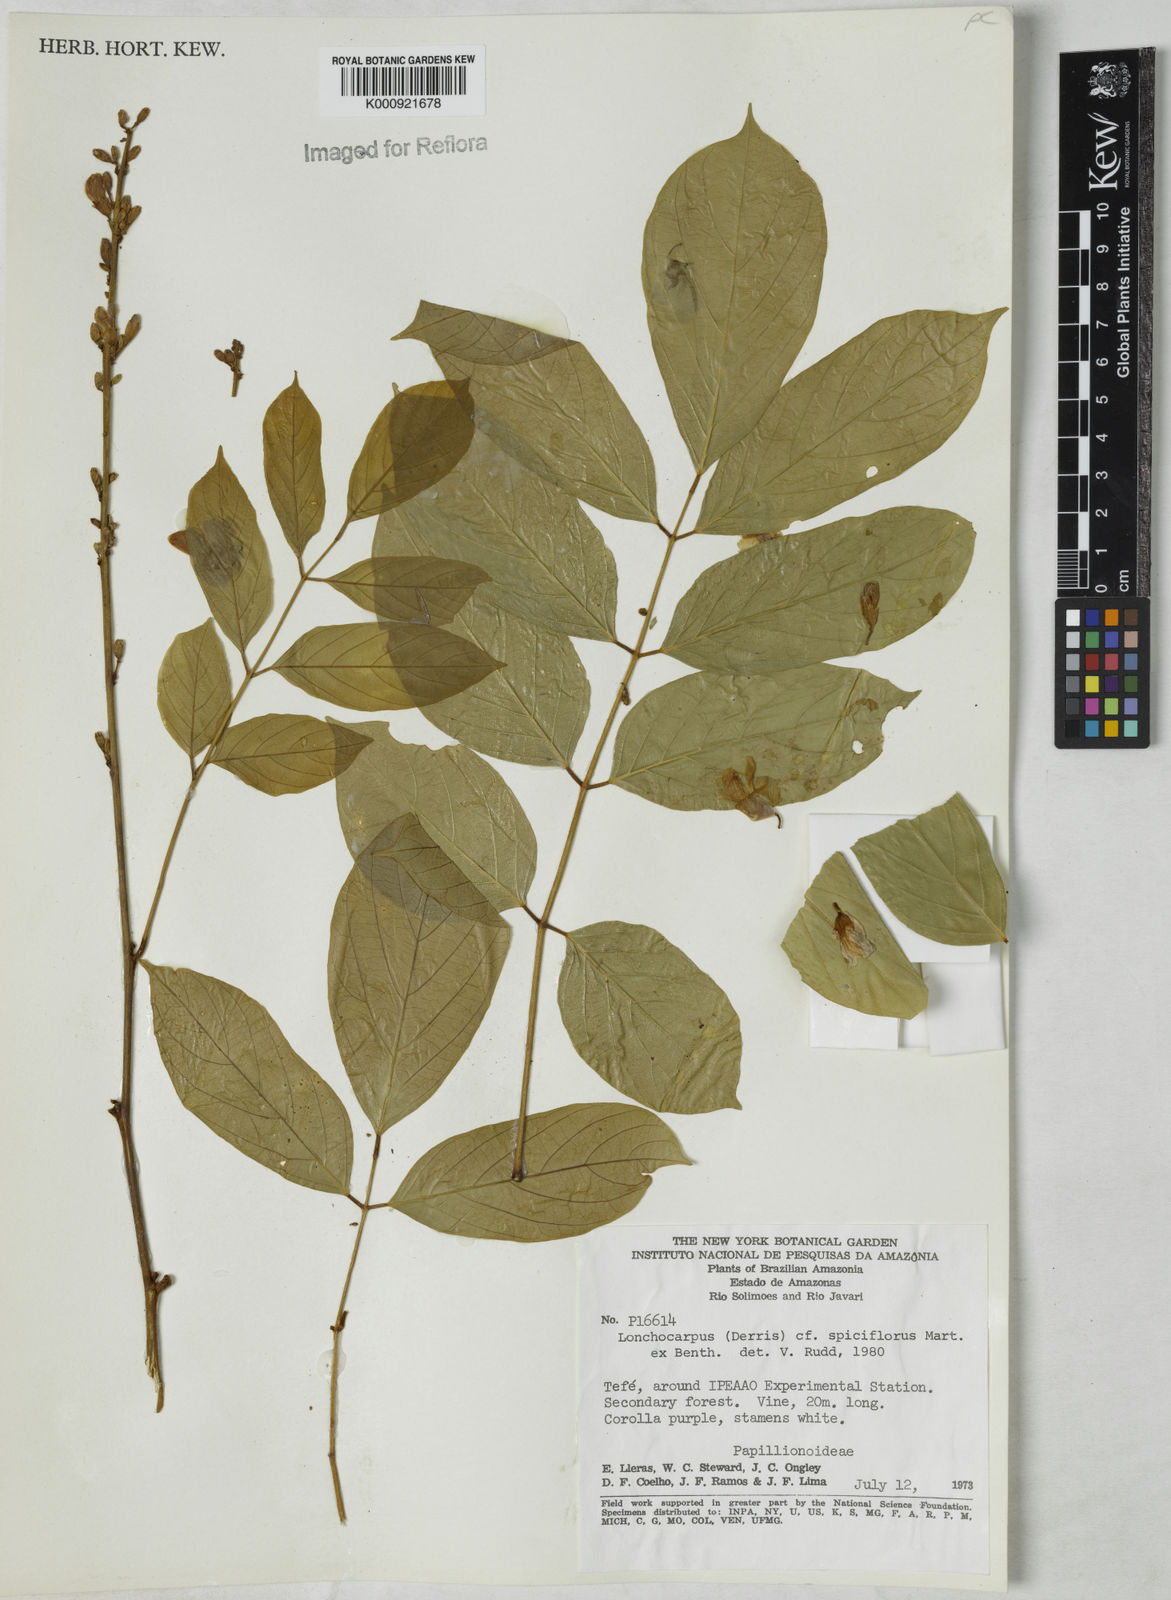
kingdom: Plantae
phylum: Tracheophyta
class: Magnoliopsida
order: Fabales
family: Fabaceae
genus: Lonchocarpus
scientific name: Lonchocarpus spiciflorus
